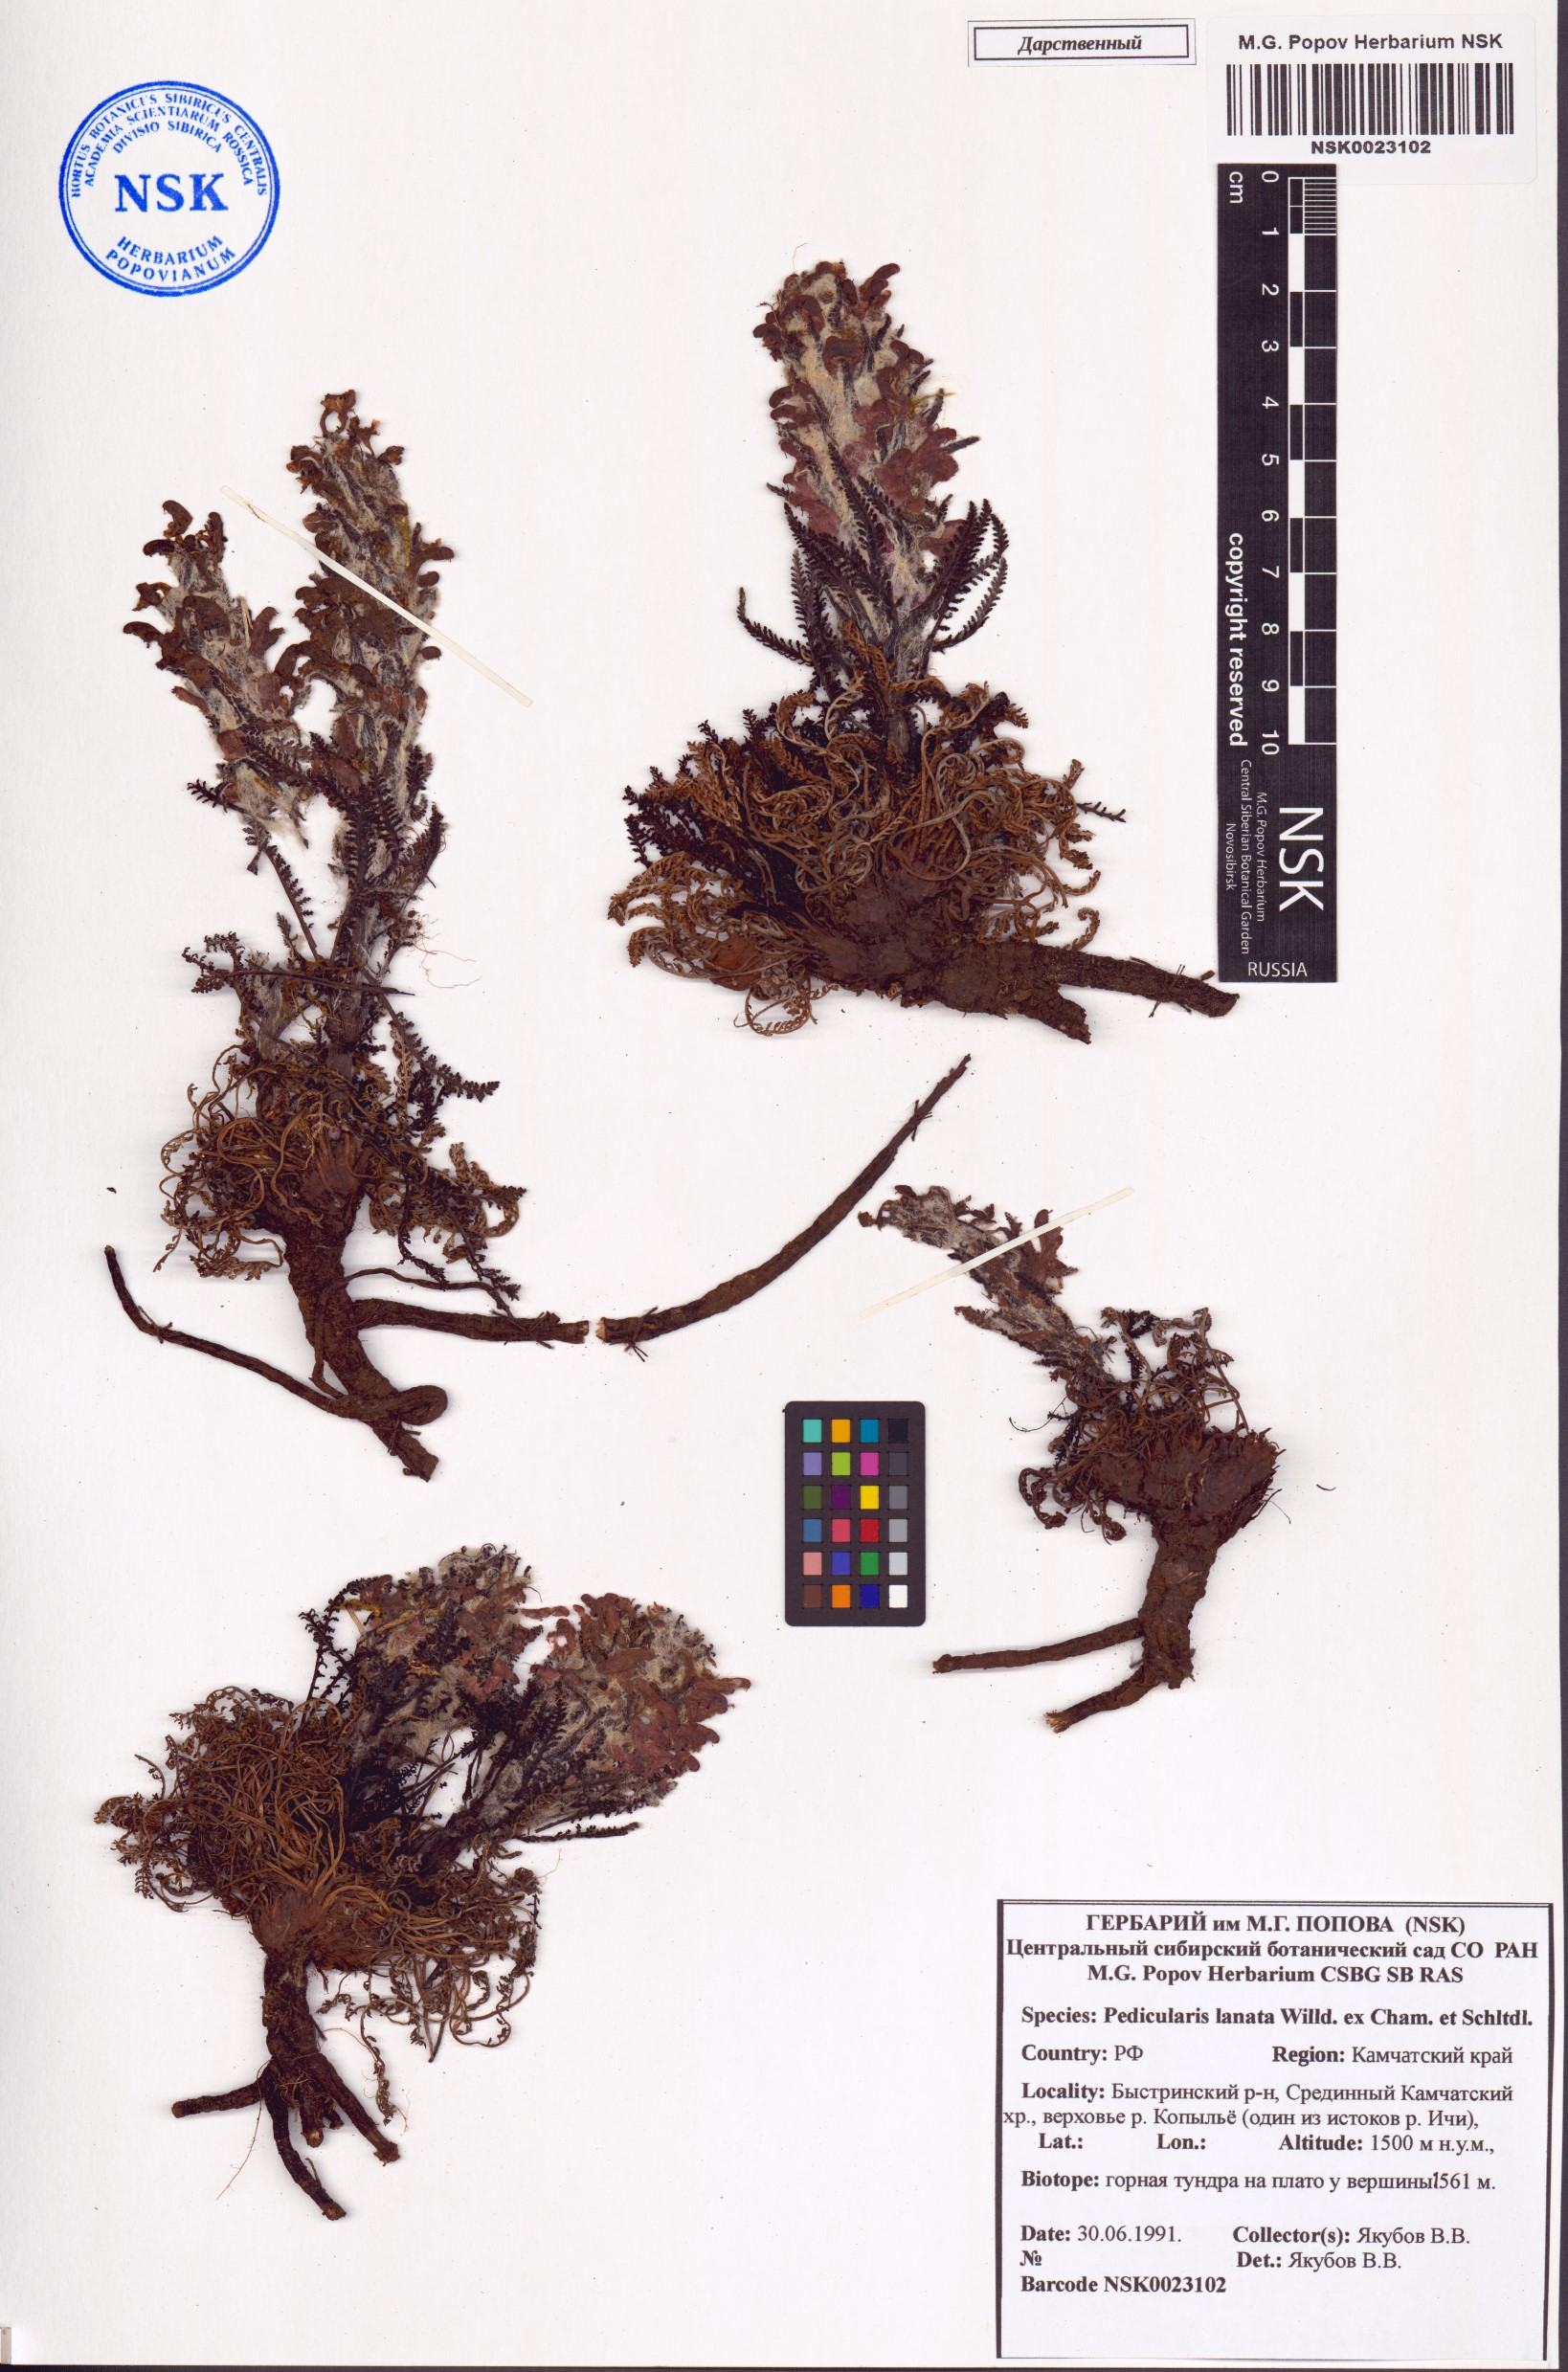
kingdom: Plantae
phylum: Tracheophyta
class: Magnoliopsida
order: Lamiales
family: Orobanchaceae
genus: Pedicularis
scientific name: Pedicularis lanata
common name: Woolly lousewort
